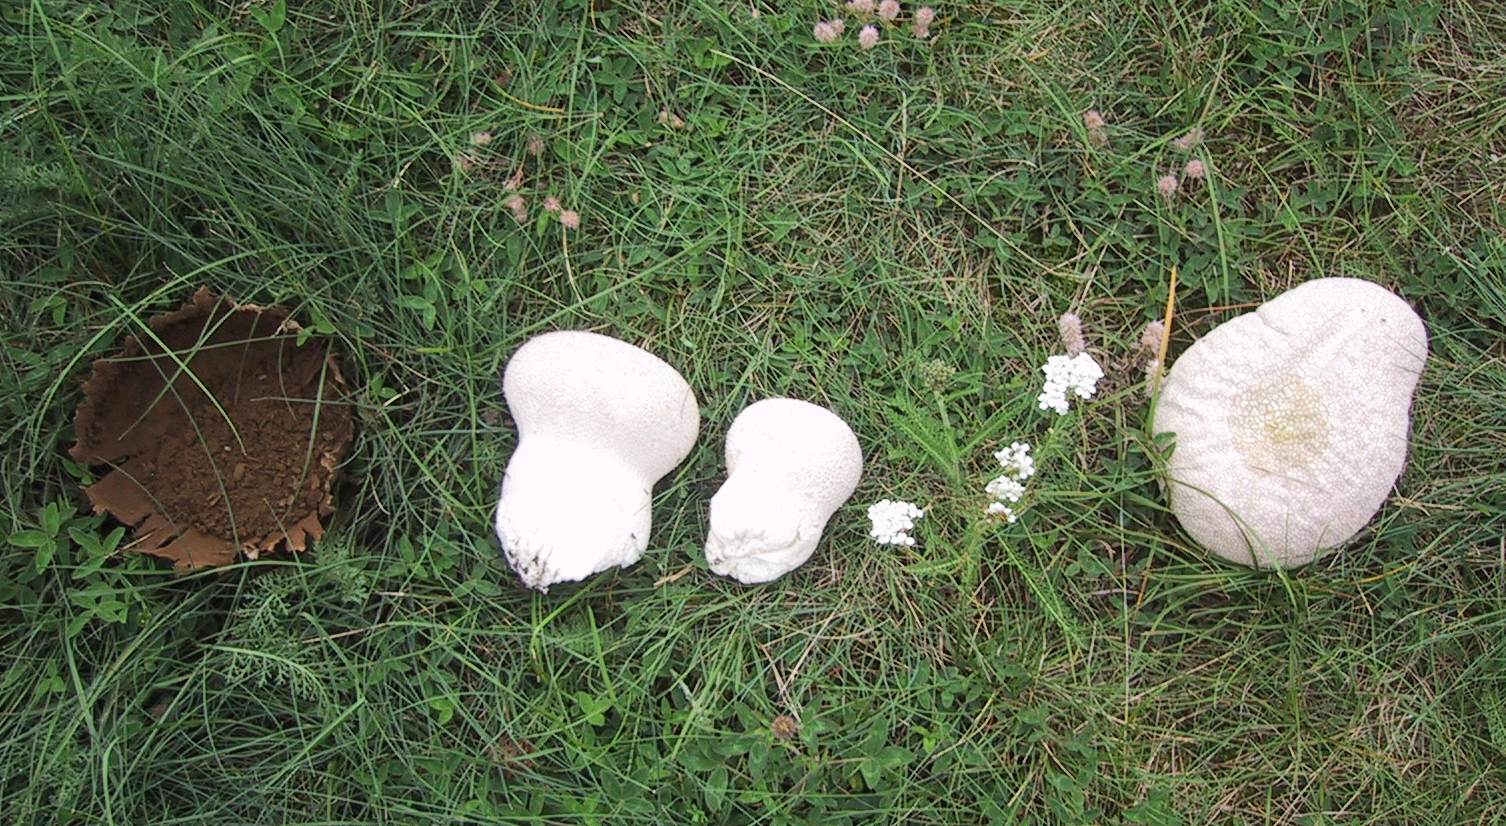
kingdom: Fungi
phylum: Basidiomycota
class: Agaricomycetes
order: Agaricales
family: Lycoperdaceae
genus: Bovistella
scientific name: Bovistella utriformis
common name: skællet støvbold
